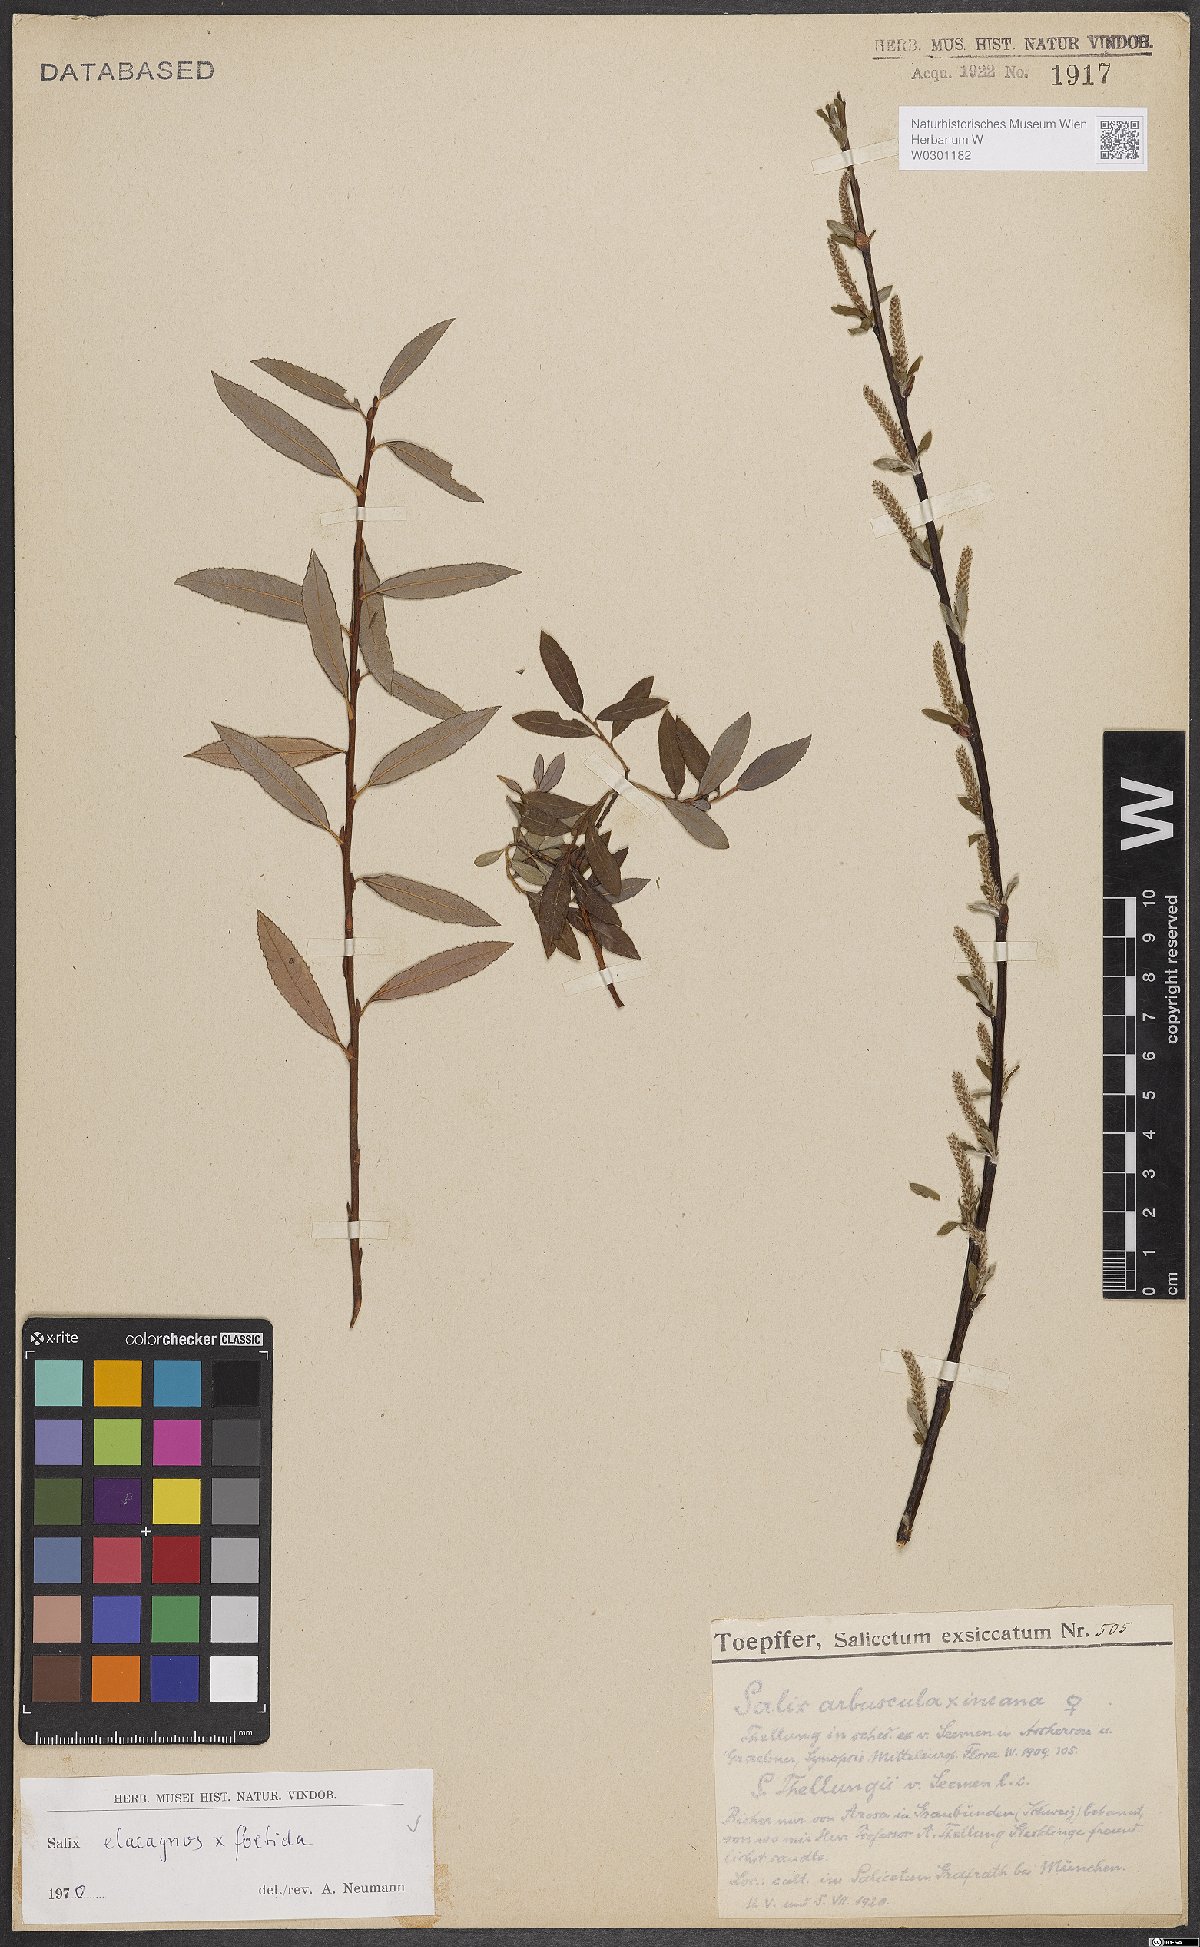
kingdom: Plantae
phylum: Tracheophyta
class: Magnoliopsida
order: Malpighiales
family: Salicaceae
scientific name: Salicaceae
